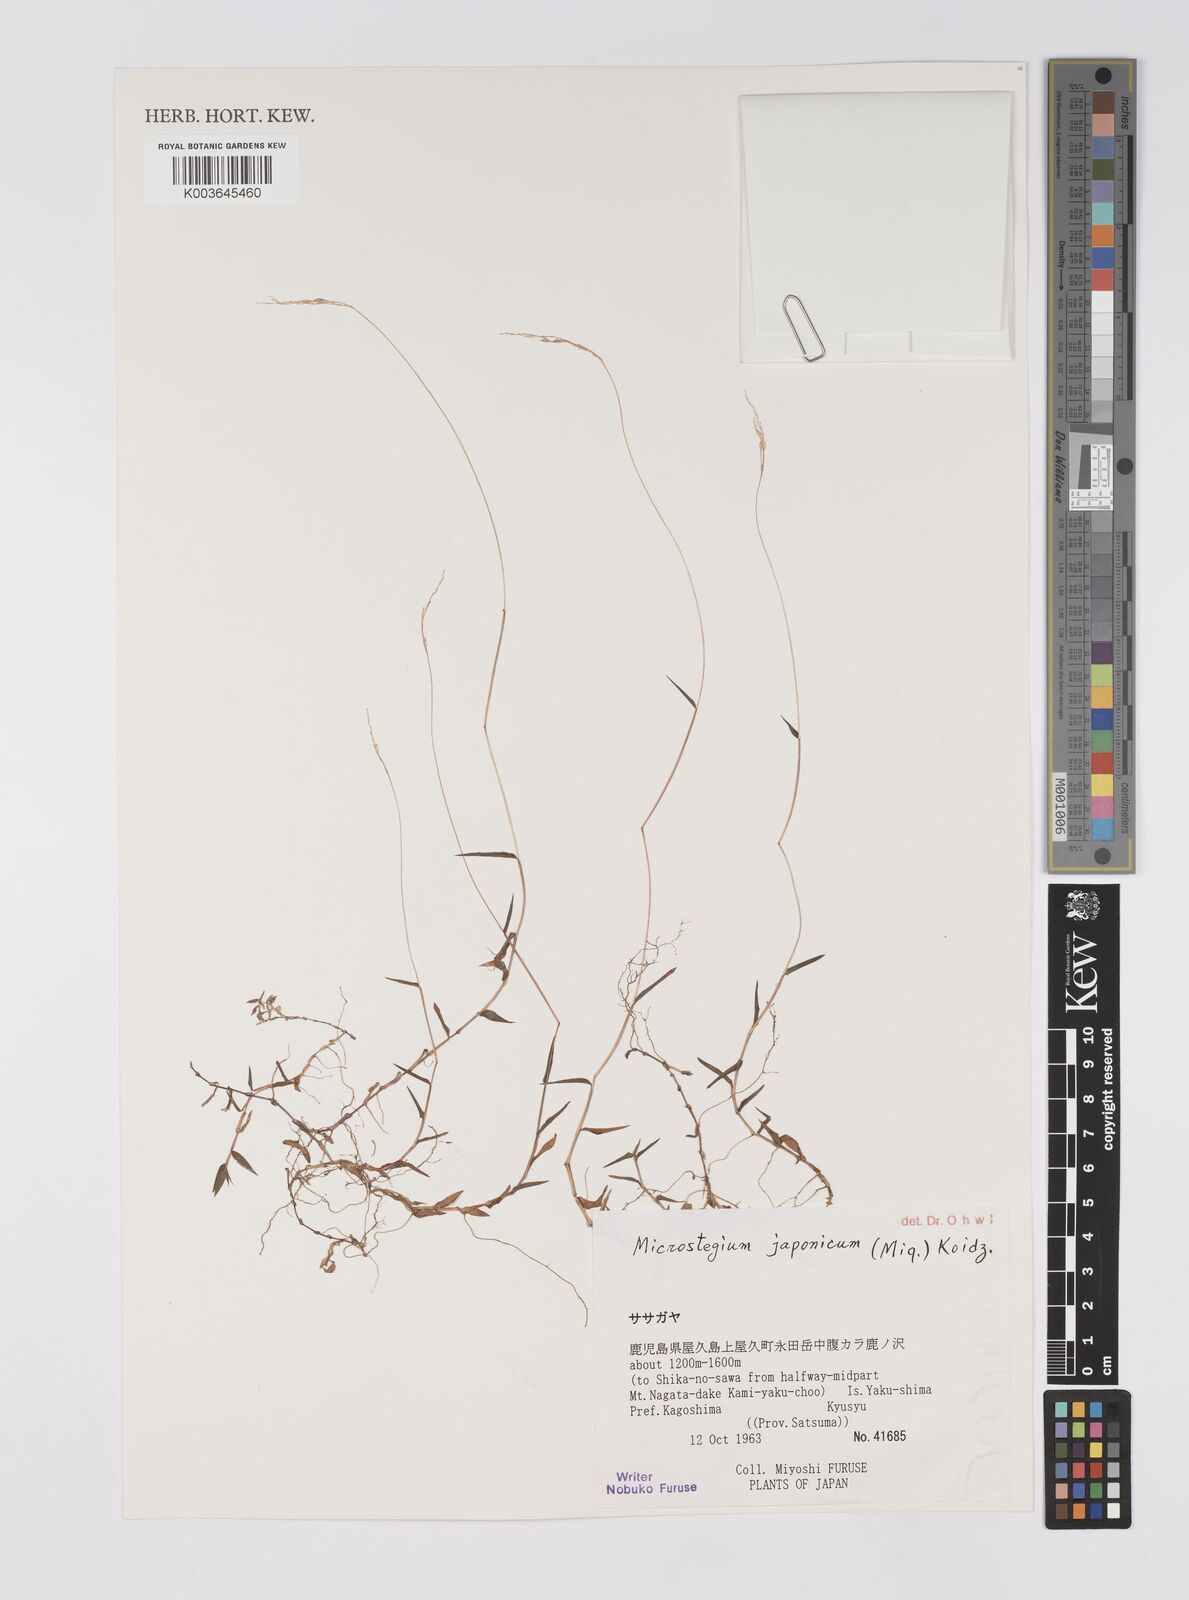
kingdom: Plantae
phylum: Tracheophyta
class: Liliopsida
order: Poales
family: Poaceae
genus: Microstegium
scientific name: Microstegium japonicum
